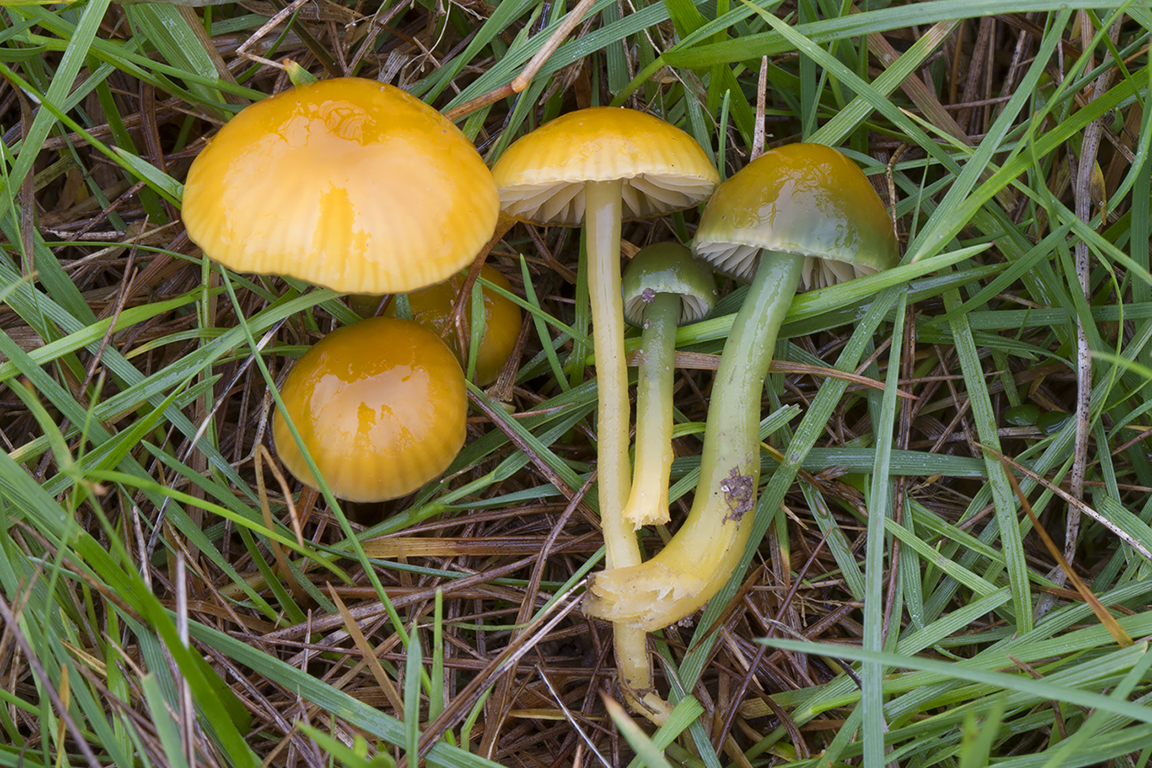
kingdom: Fungi
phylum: Basidiomycota
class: Agaricomycetes
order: Agaricales
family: Hygrophoraceae
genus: Gliophorus
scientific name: Gliophorus psittacinus
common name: papegøje-vokshat
